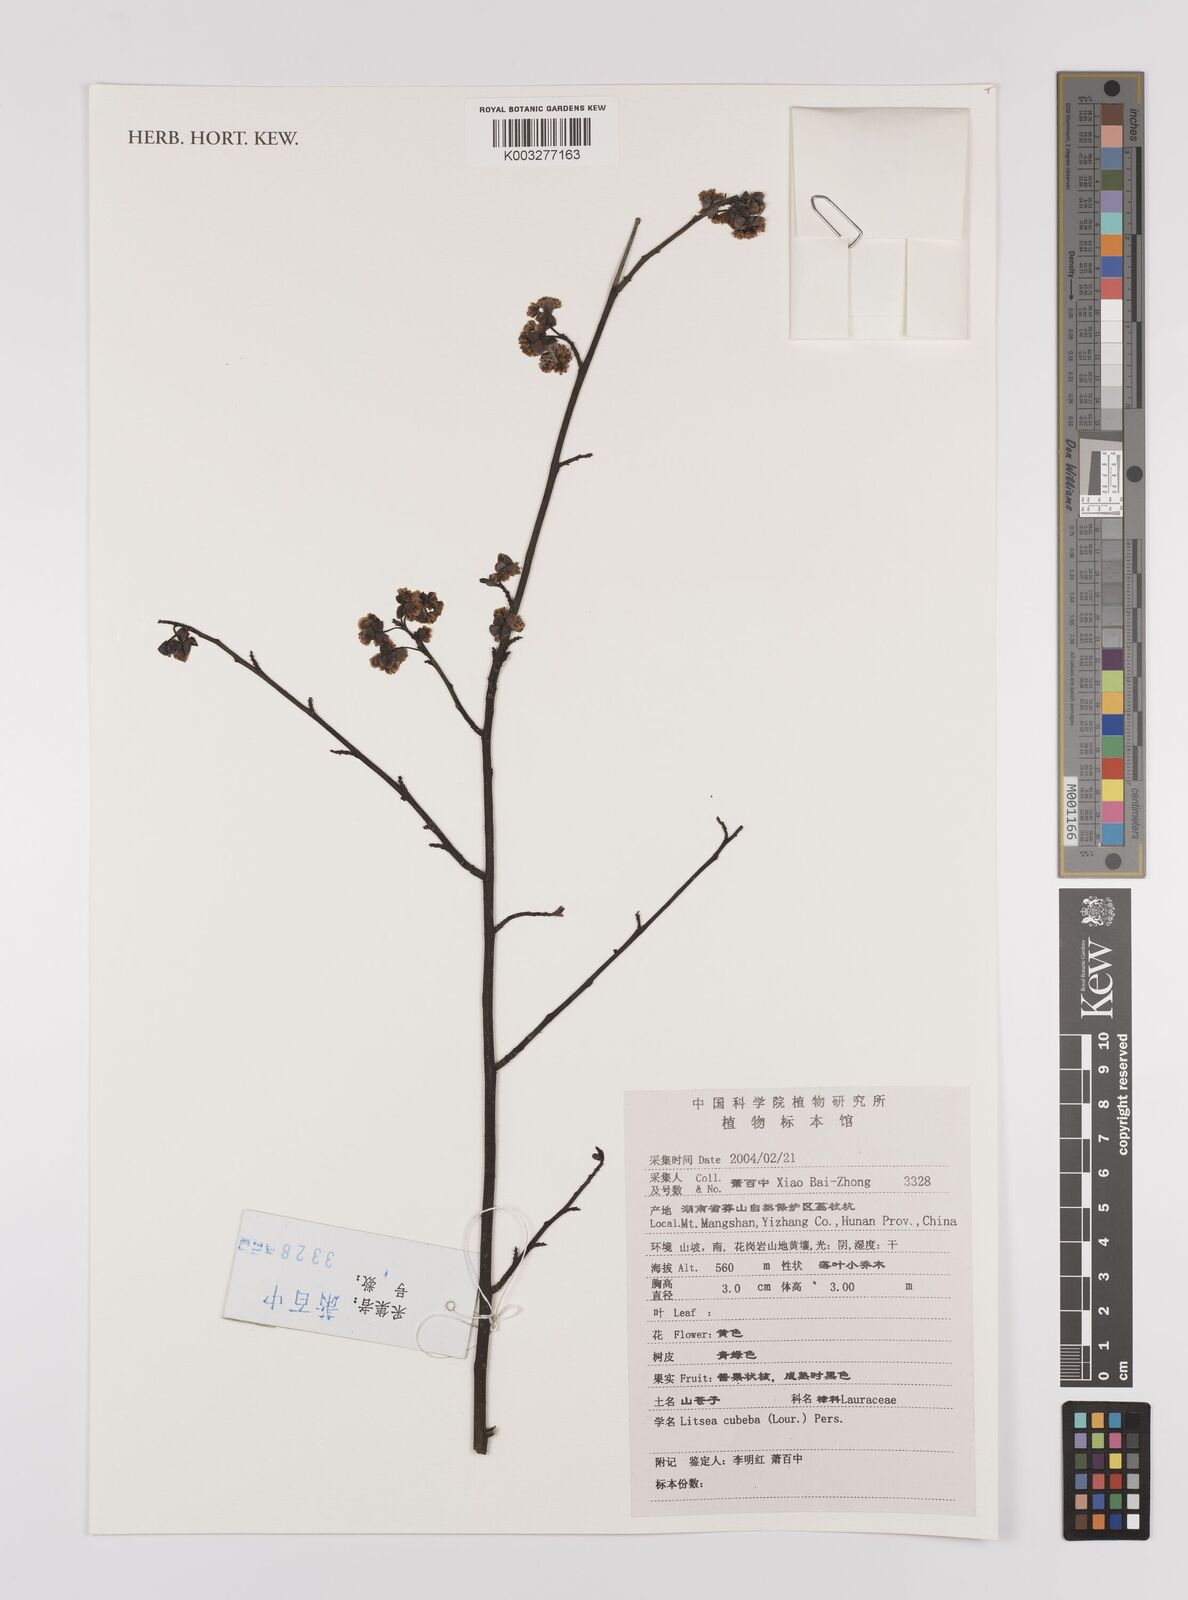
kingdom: Plantae
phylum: Tracheophyta
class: Magnoliopsida
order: Laurales
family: Lauraceae
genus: Litsea
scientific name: Litsea cubeba
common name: Mountain-pepper
